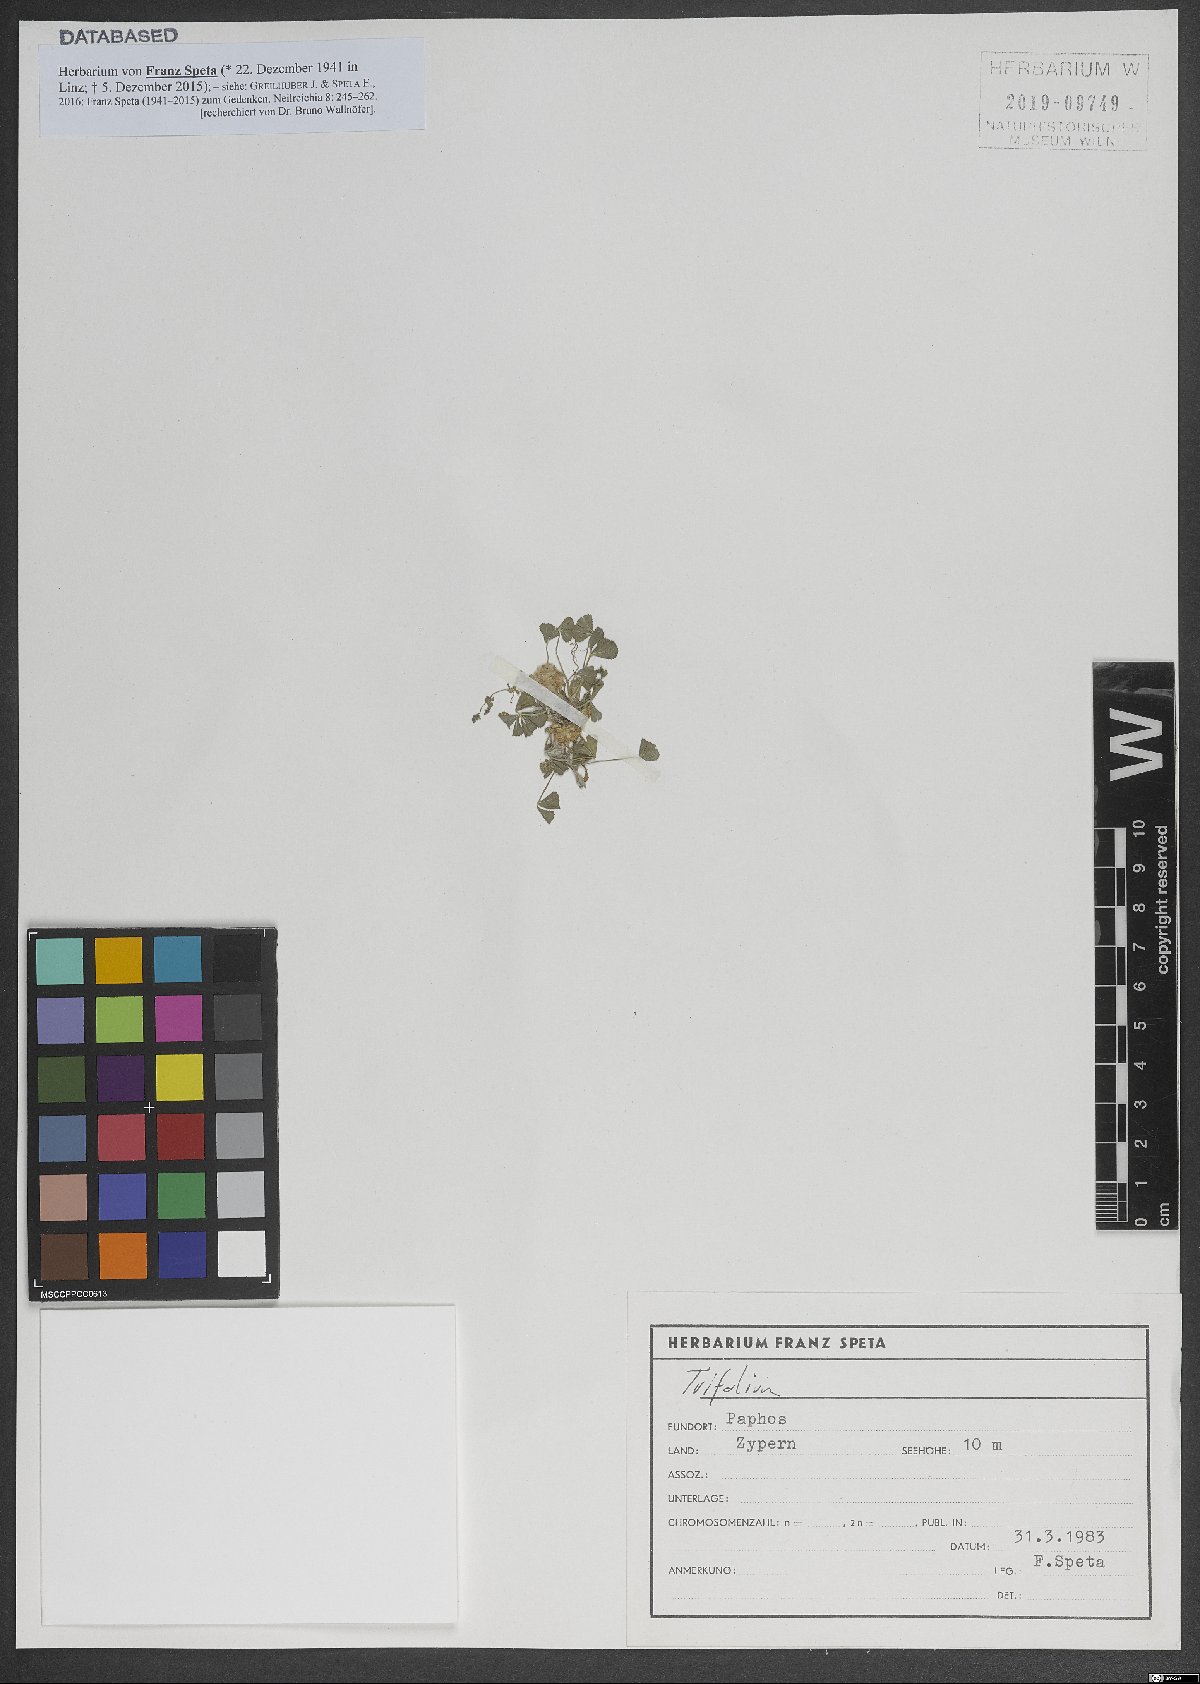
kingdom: Plantae
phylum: Tracheophyta
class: Magnoliopsida
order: Fabales
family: Fabaceae
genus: Trifolium
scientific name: Trifolium physodes
